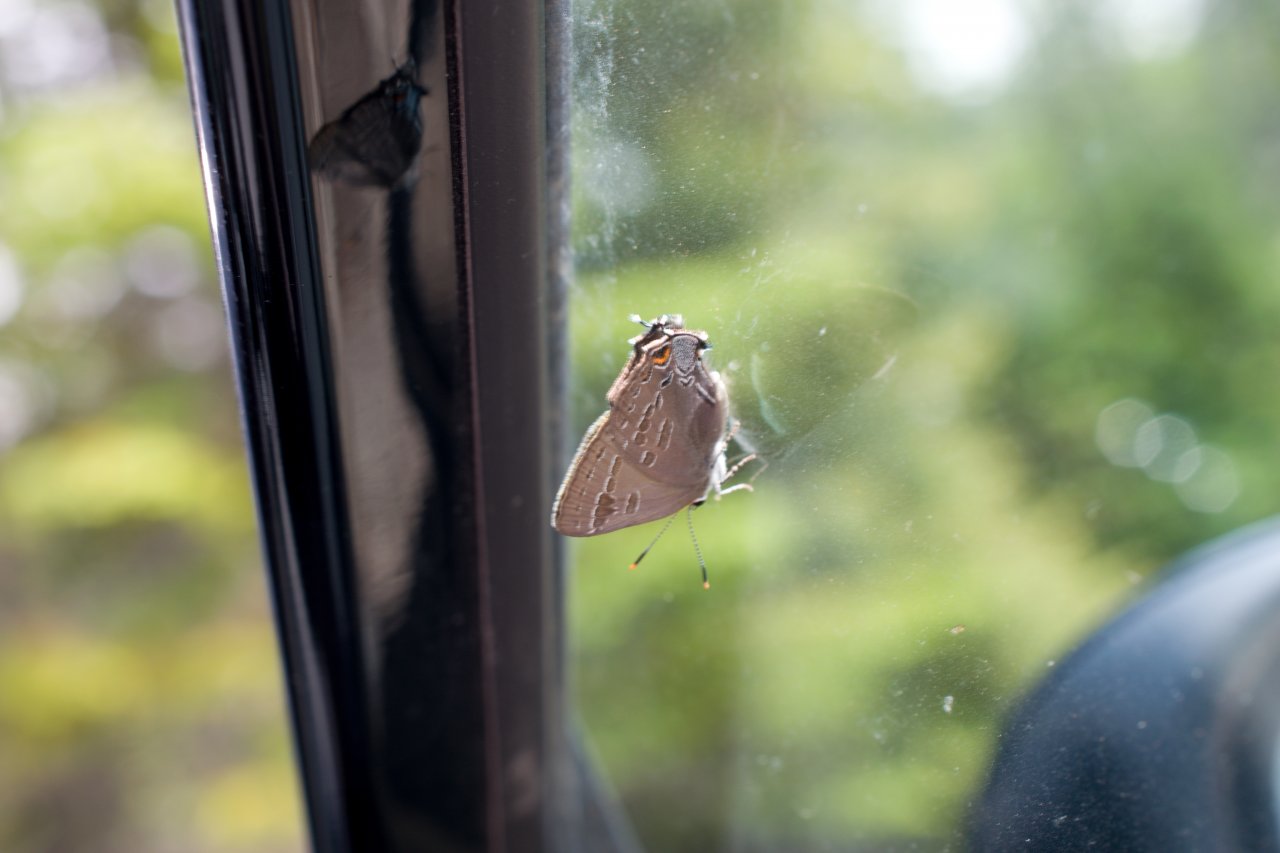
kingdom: Animalia
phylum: Arthropoda
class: Insecta
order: Lepidoptera
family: Lycaenidae
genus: Strymon
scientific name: Strymon caryaevorus
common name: Hickory Hairstreak
